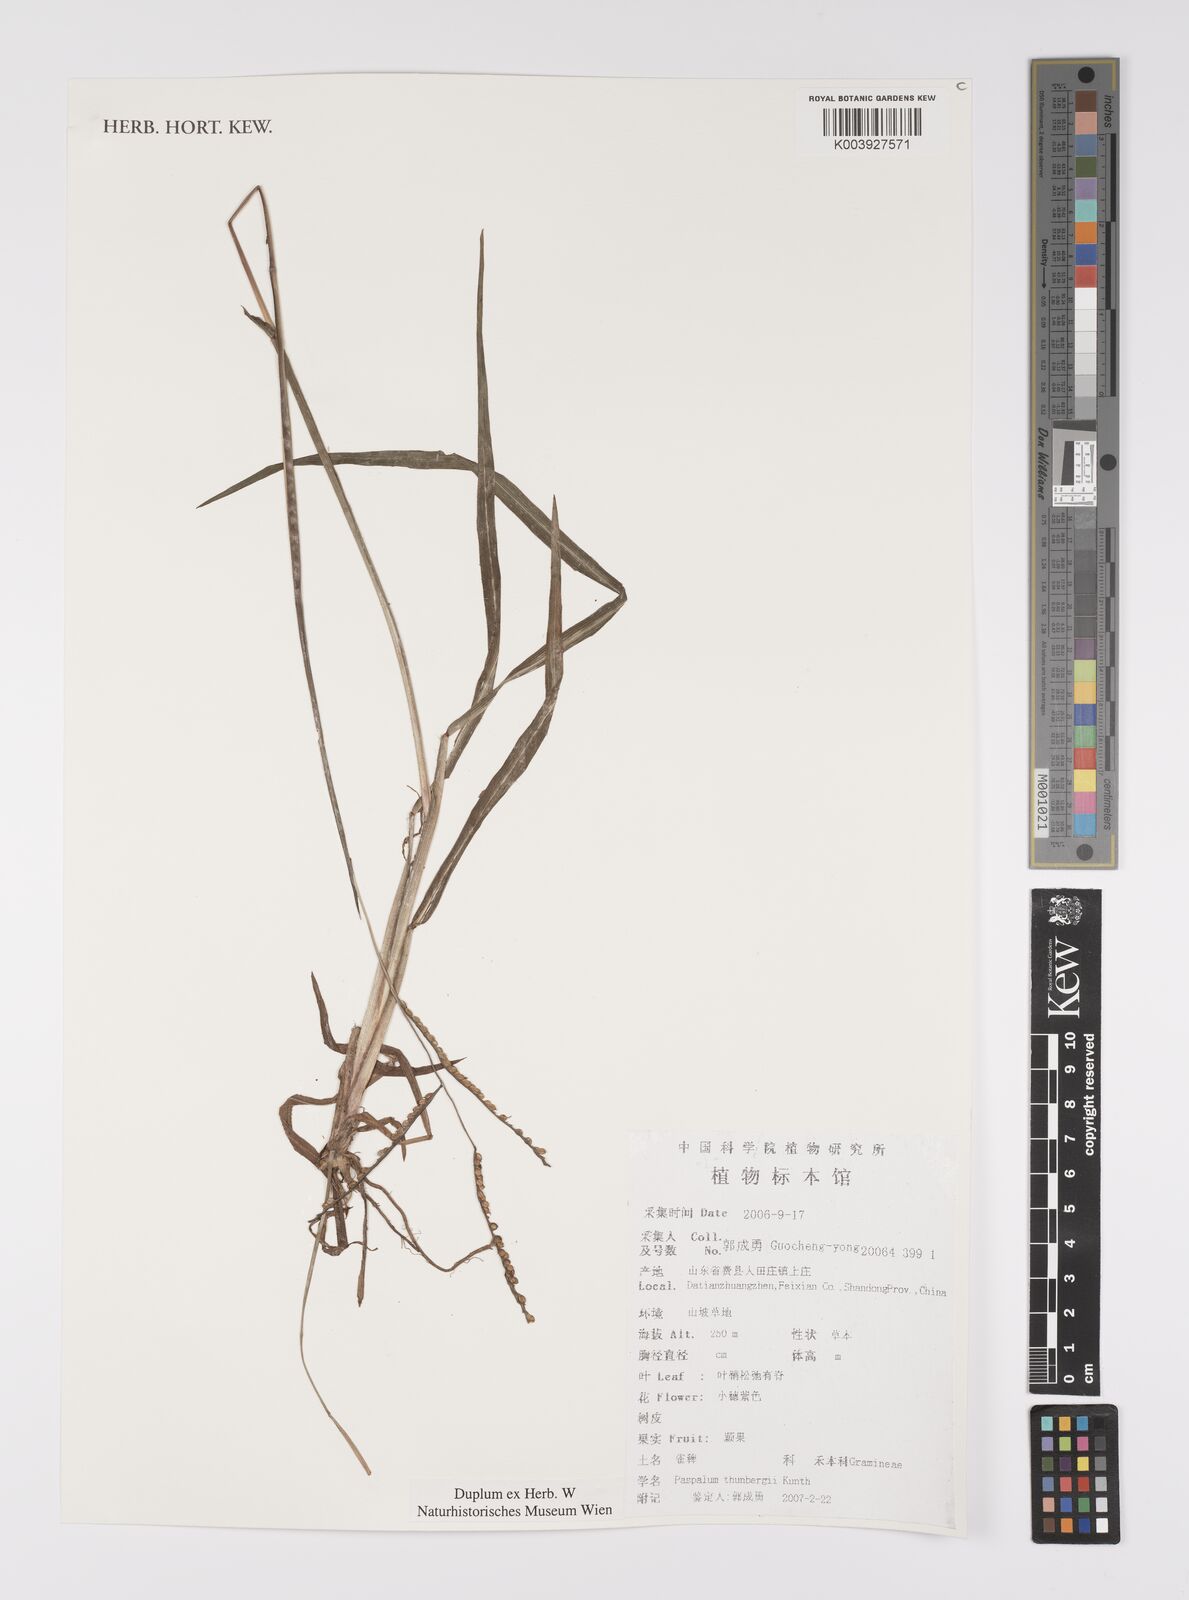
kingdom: Plantae
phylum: Tracheophyta
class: Liliopsida
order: Poales
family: Poaceae
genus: Paspalum
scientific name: Paspalum thunbergii
